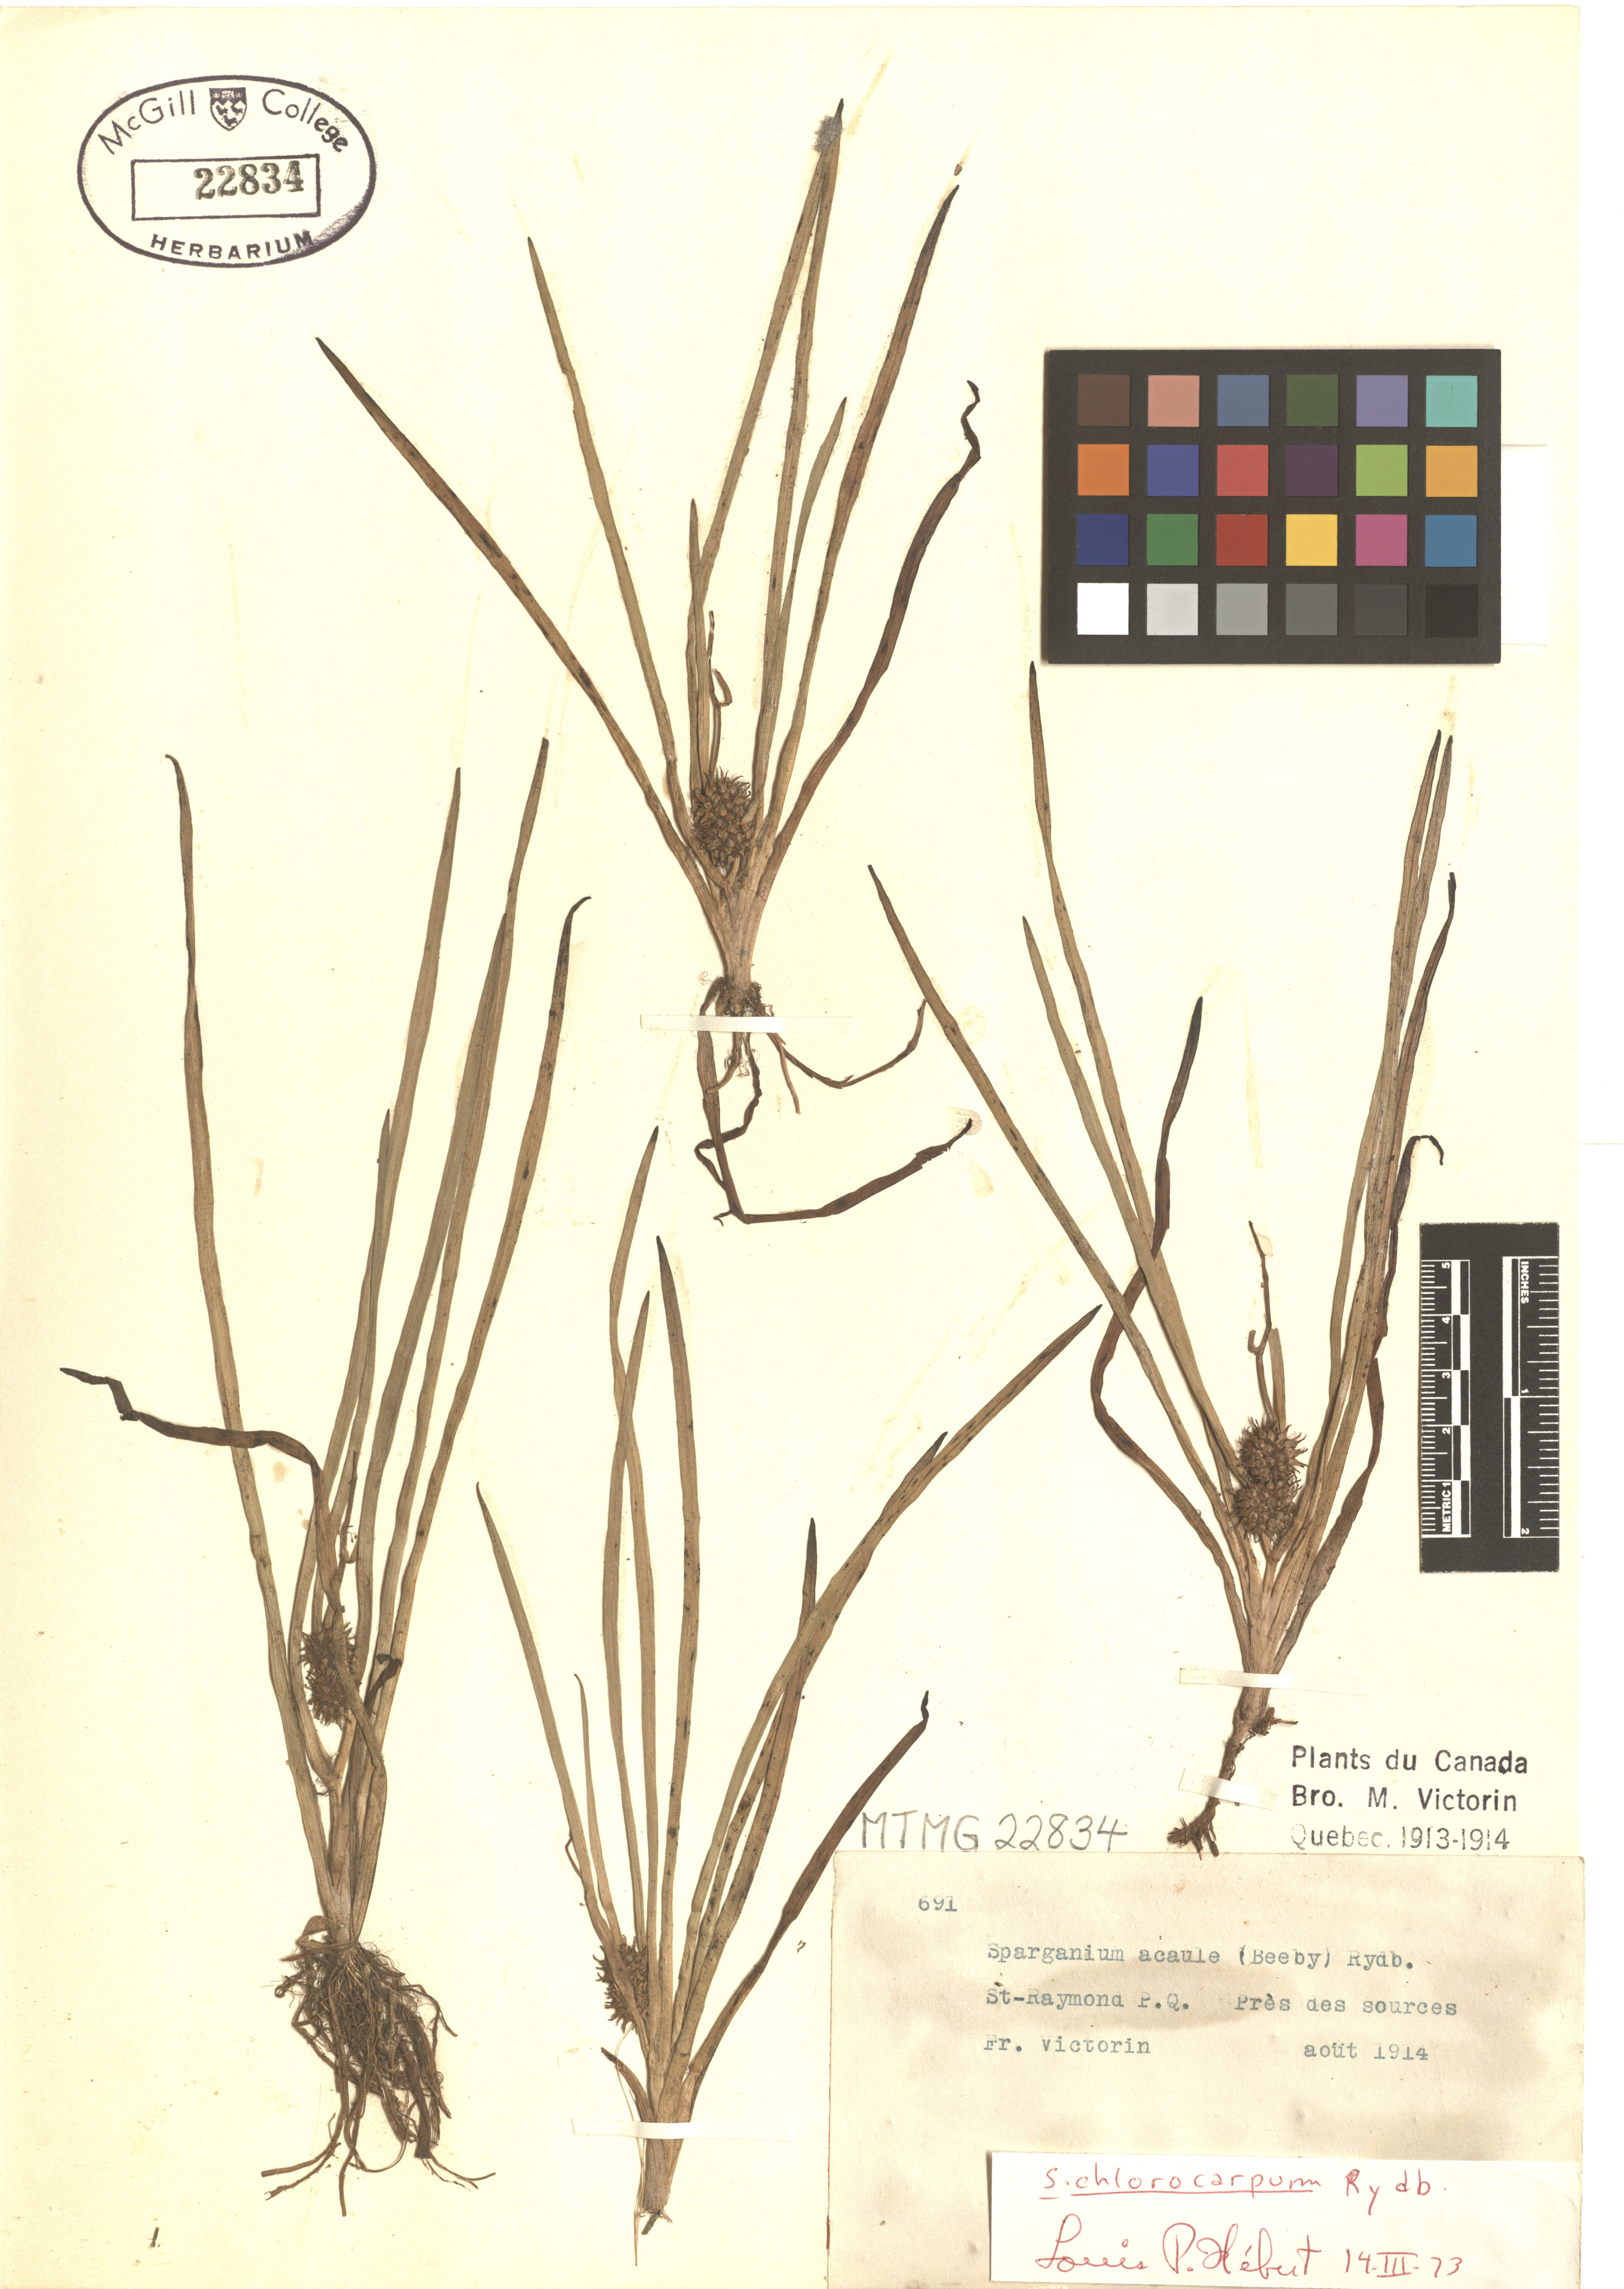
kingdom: Plantae
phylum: Tracheophyta
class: Liliopsida
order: Poales
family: Typhaceae
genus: Sparganium
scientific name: Sparganium emersum
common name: Unbranched bur-reed
